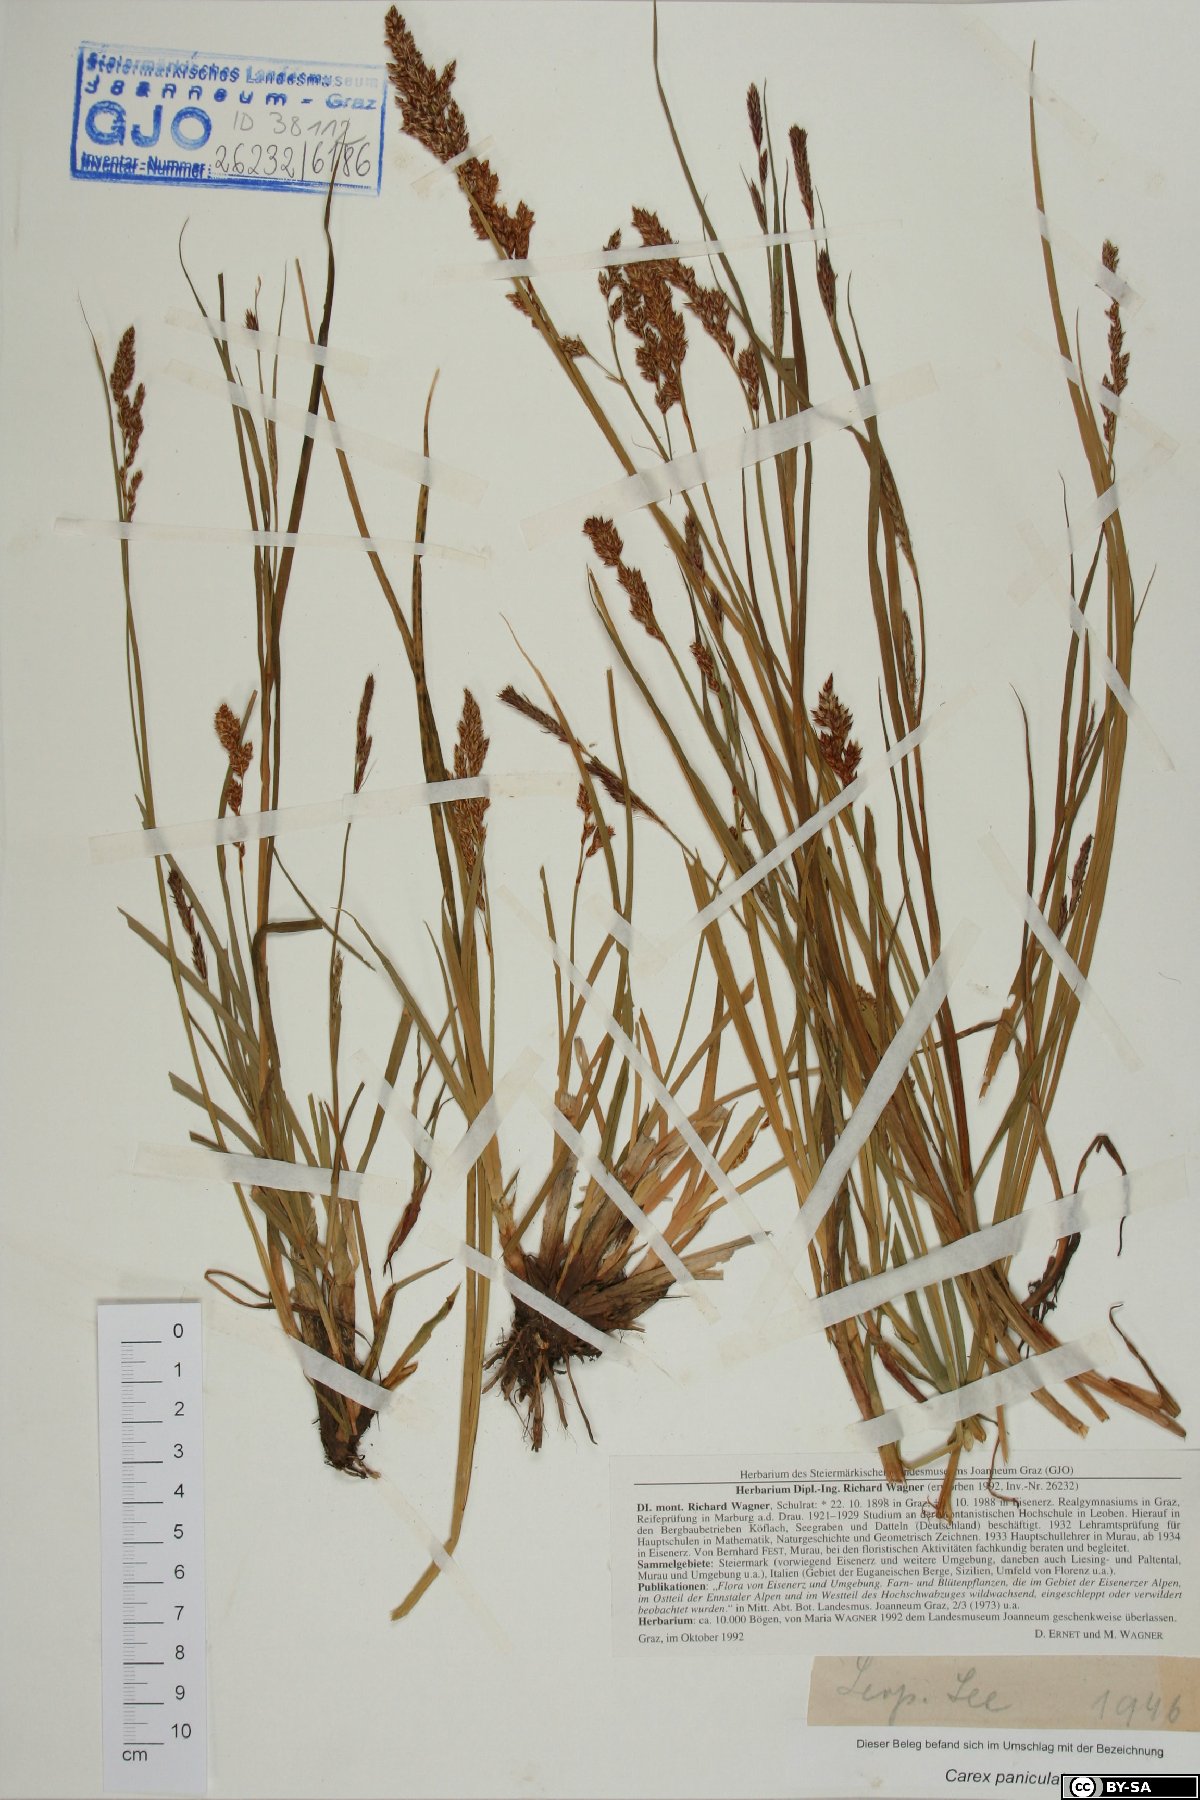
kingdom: Plantae
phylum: Tracheophyta
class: Liliopsida
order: Poales
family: Cyperaceae
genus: Carex
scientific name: Carex paniculata
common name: Greater tussock-sedge
